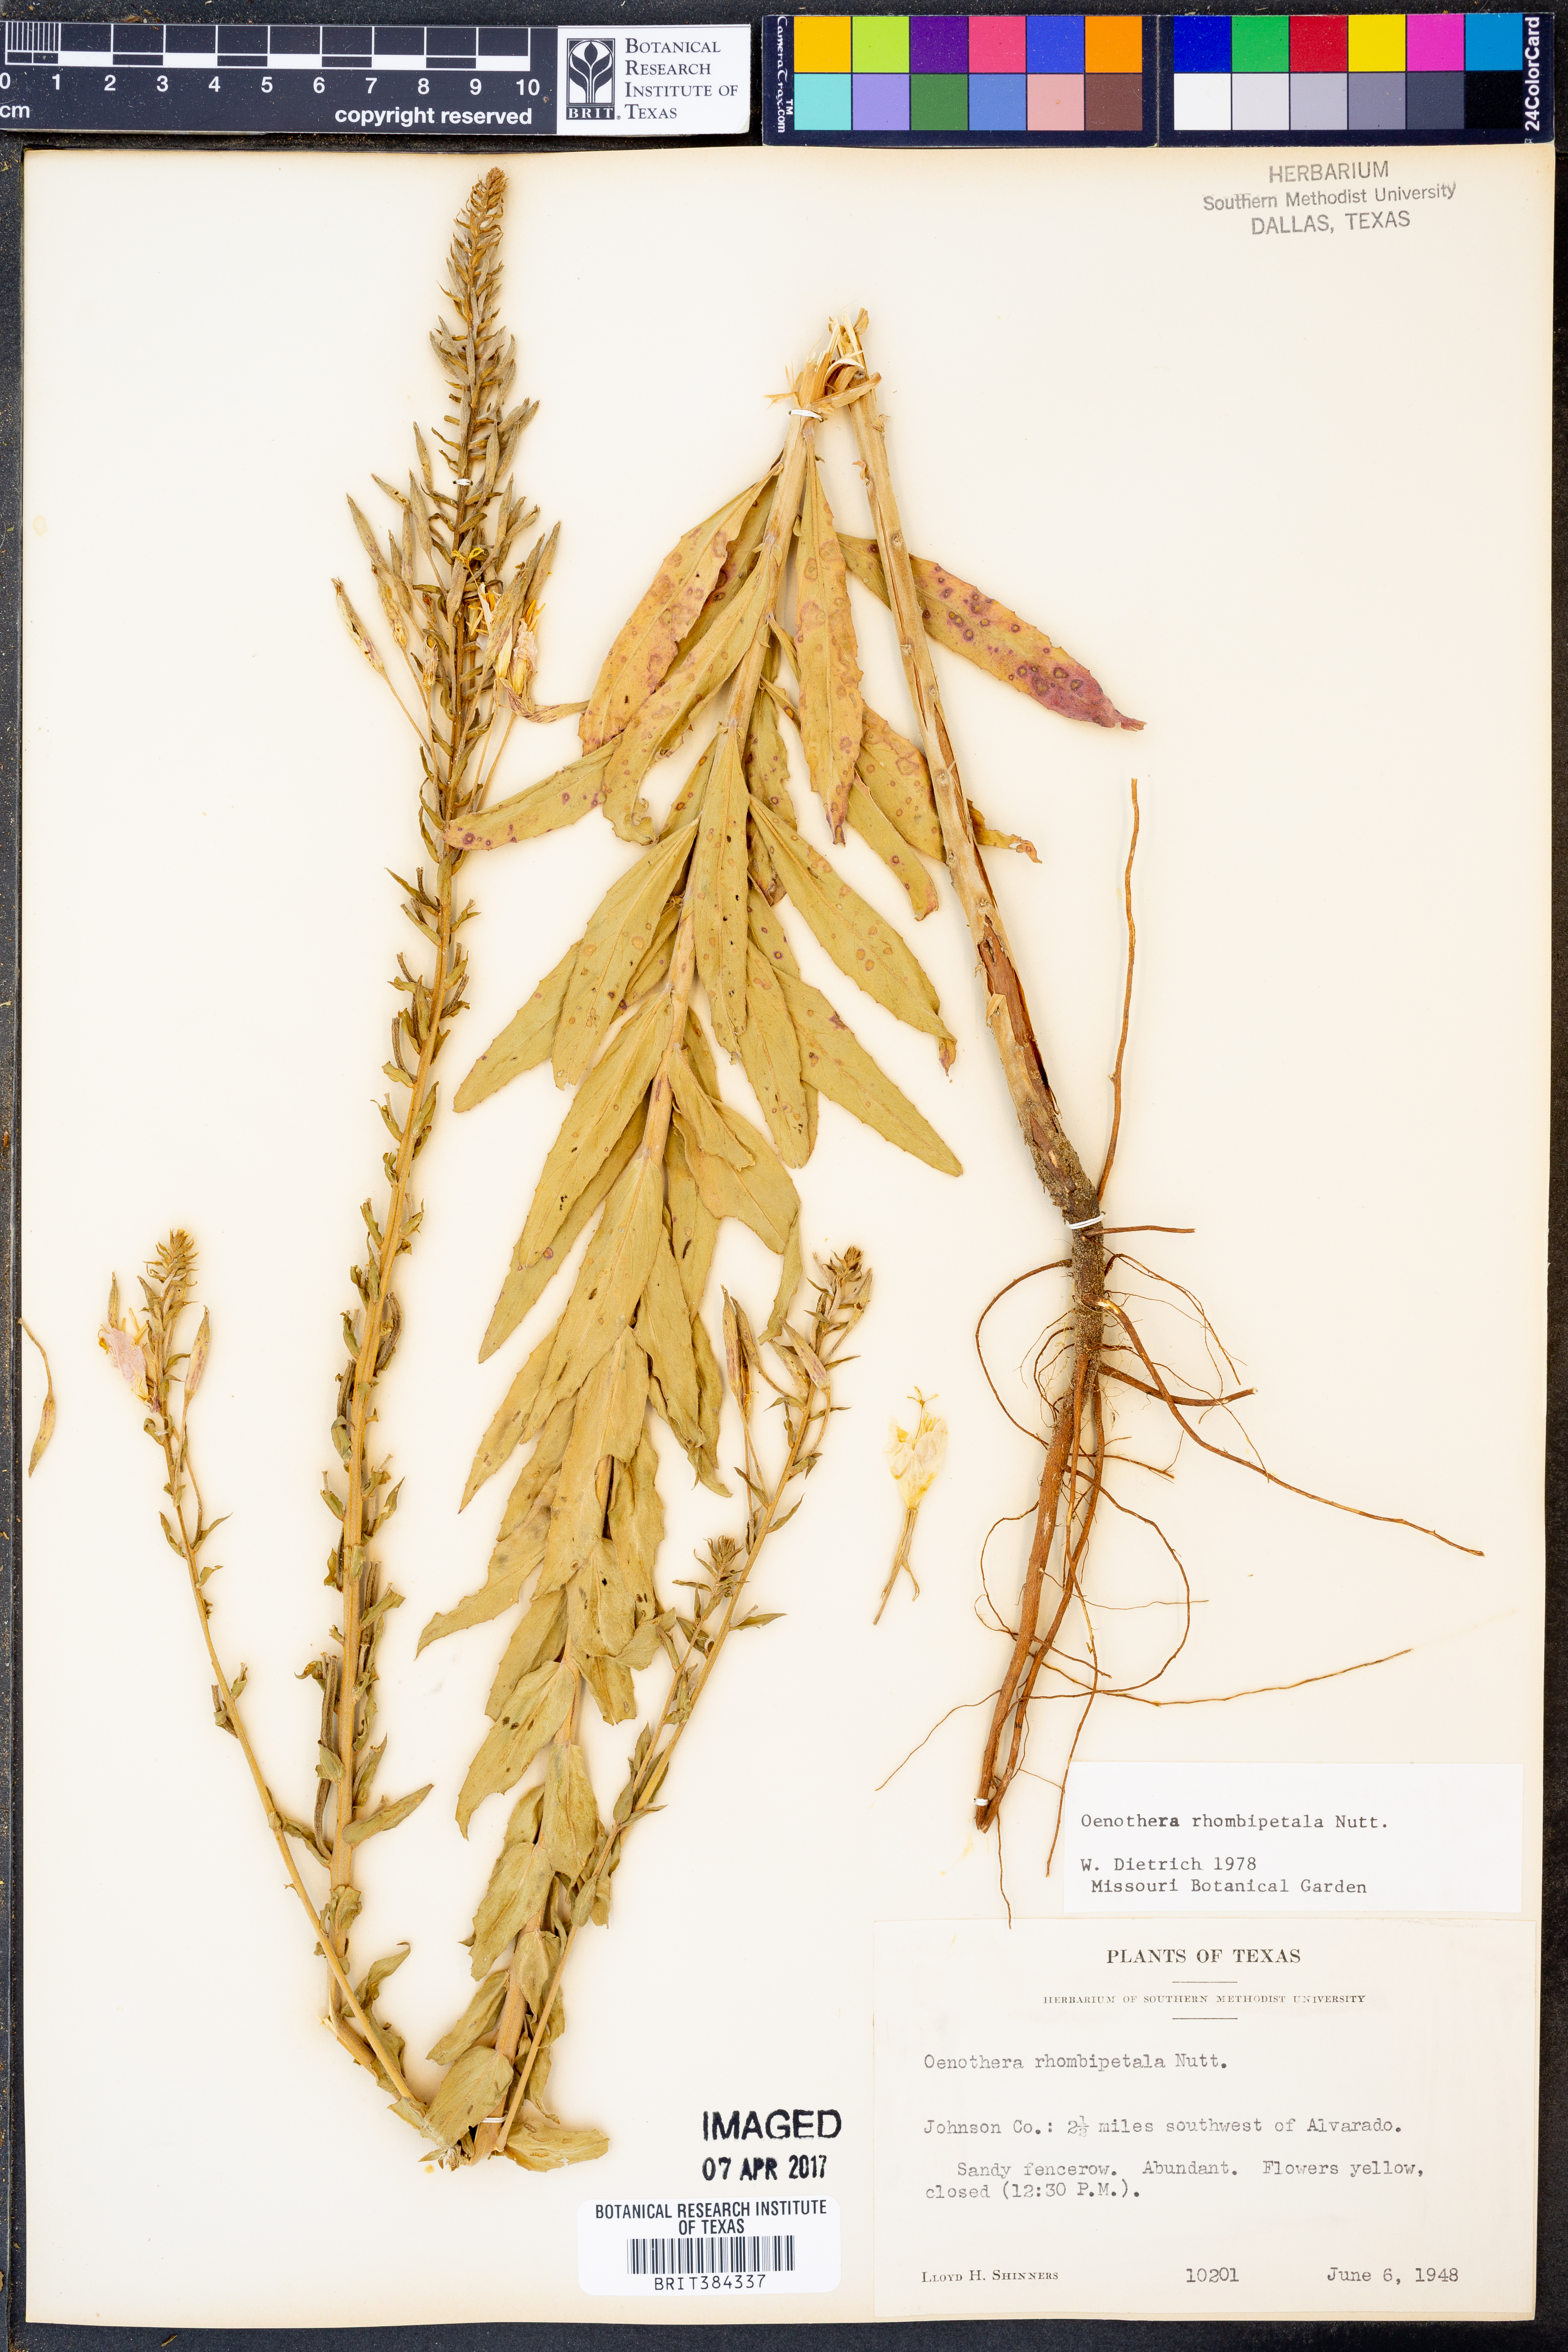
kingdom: Plantae
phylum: Tracheophyta
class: Magnoliopsida
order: Myrtales
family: Onagraceae
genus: Oenothera
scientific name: Oenothera rhombipetala
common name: Four-points evening-primrose
